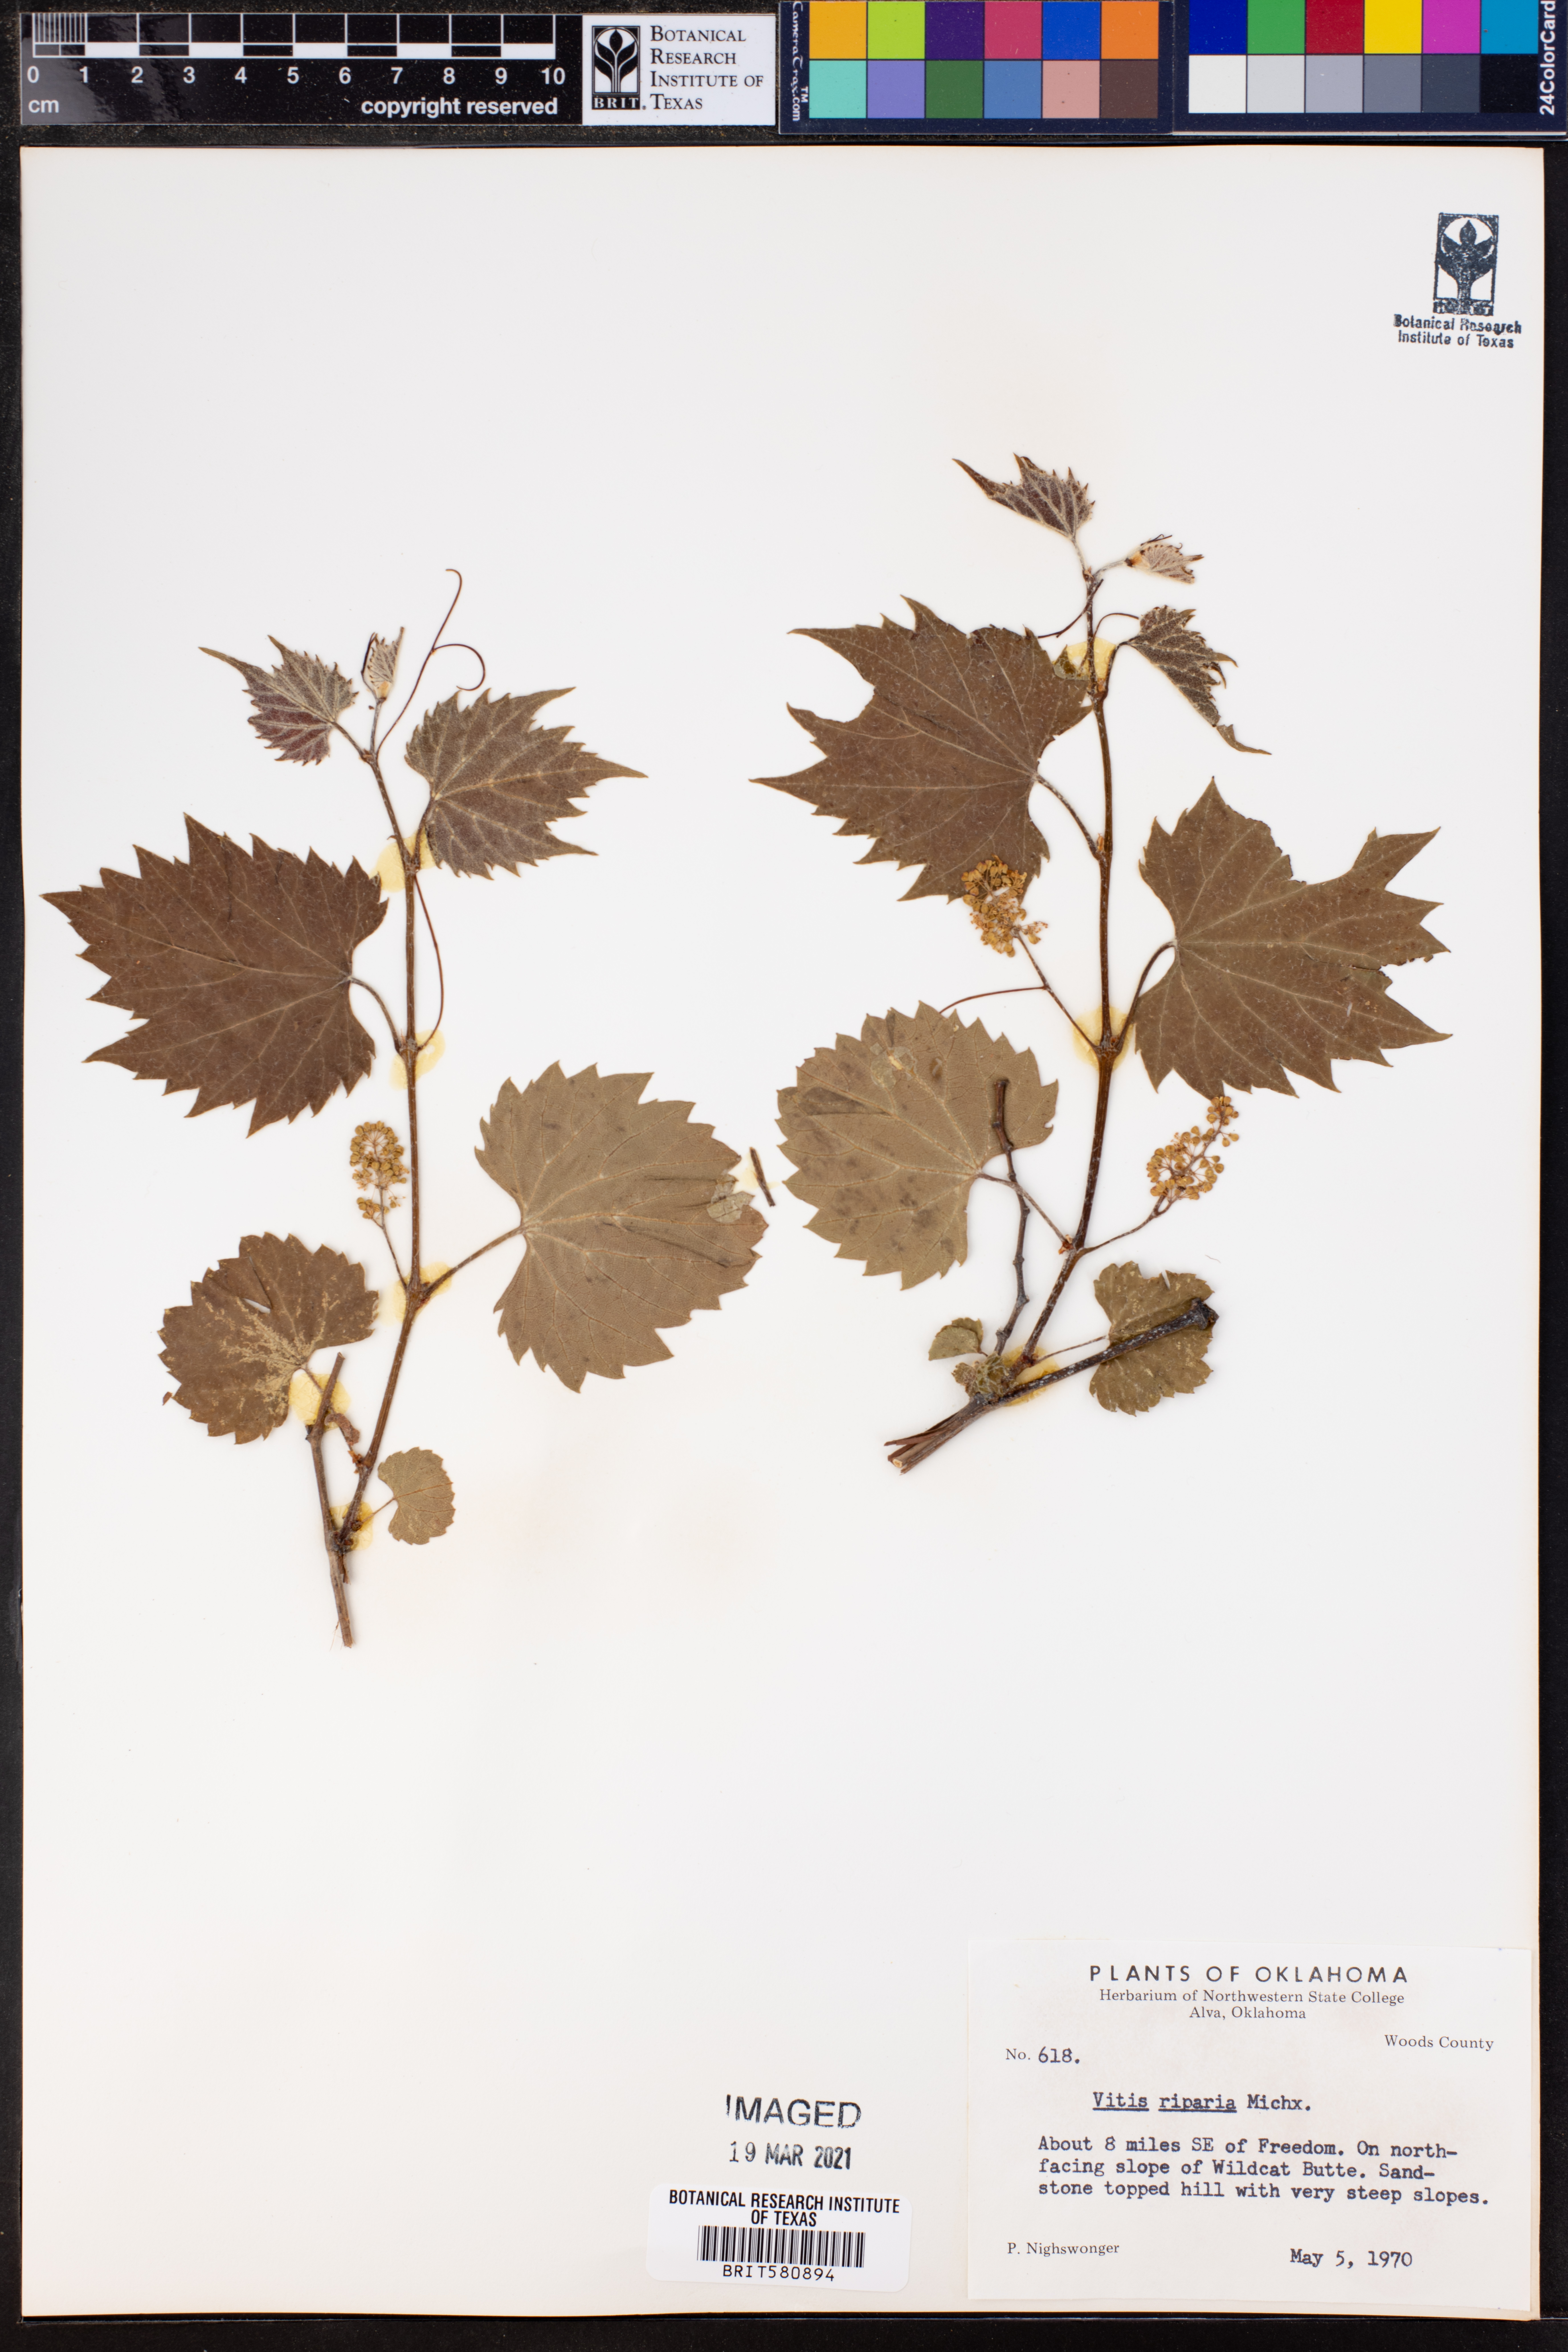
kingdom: Plantae
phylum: Tracheophyta
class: Magnoliopsida
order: Vitales
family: Vitaceae
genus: Vitis
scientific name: Vitis riparia
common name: Frost grape
